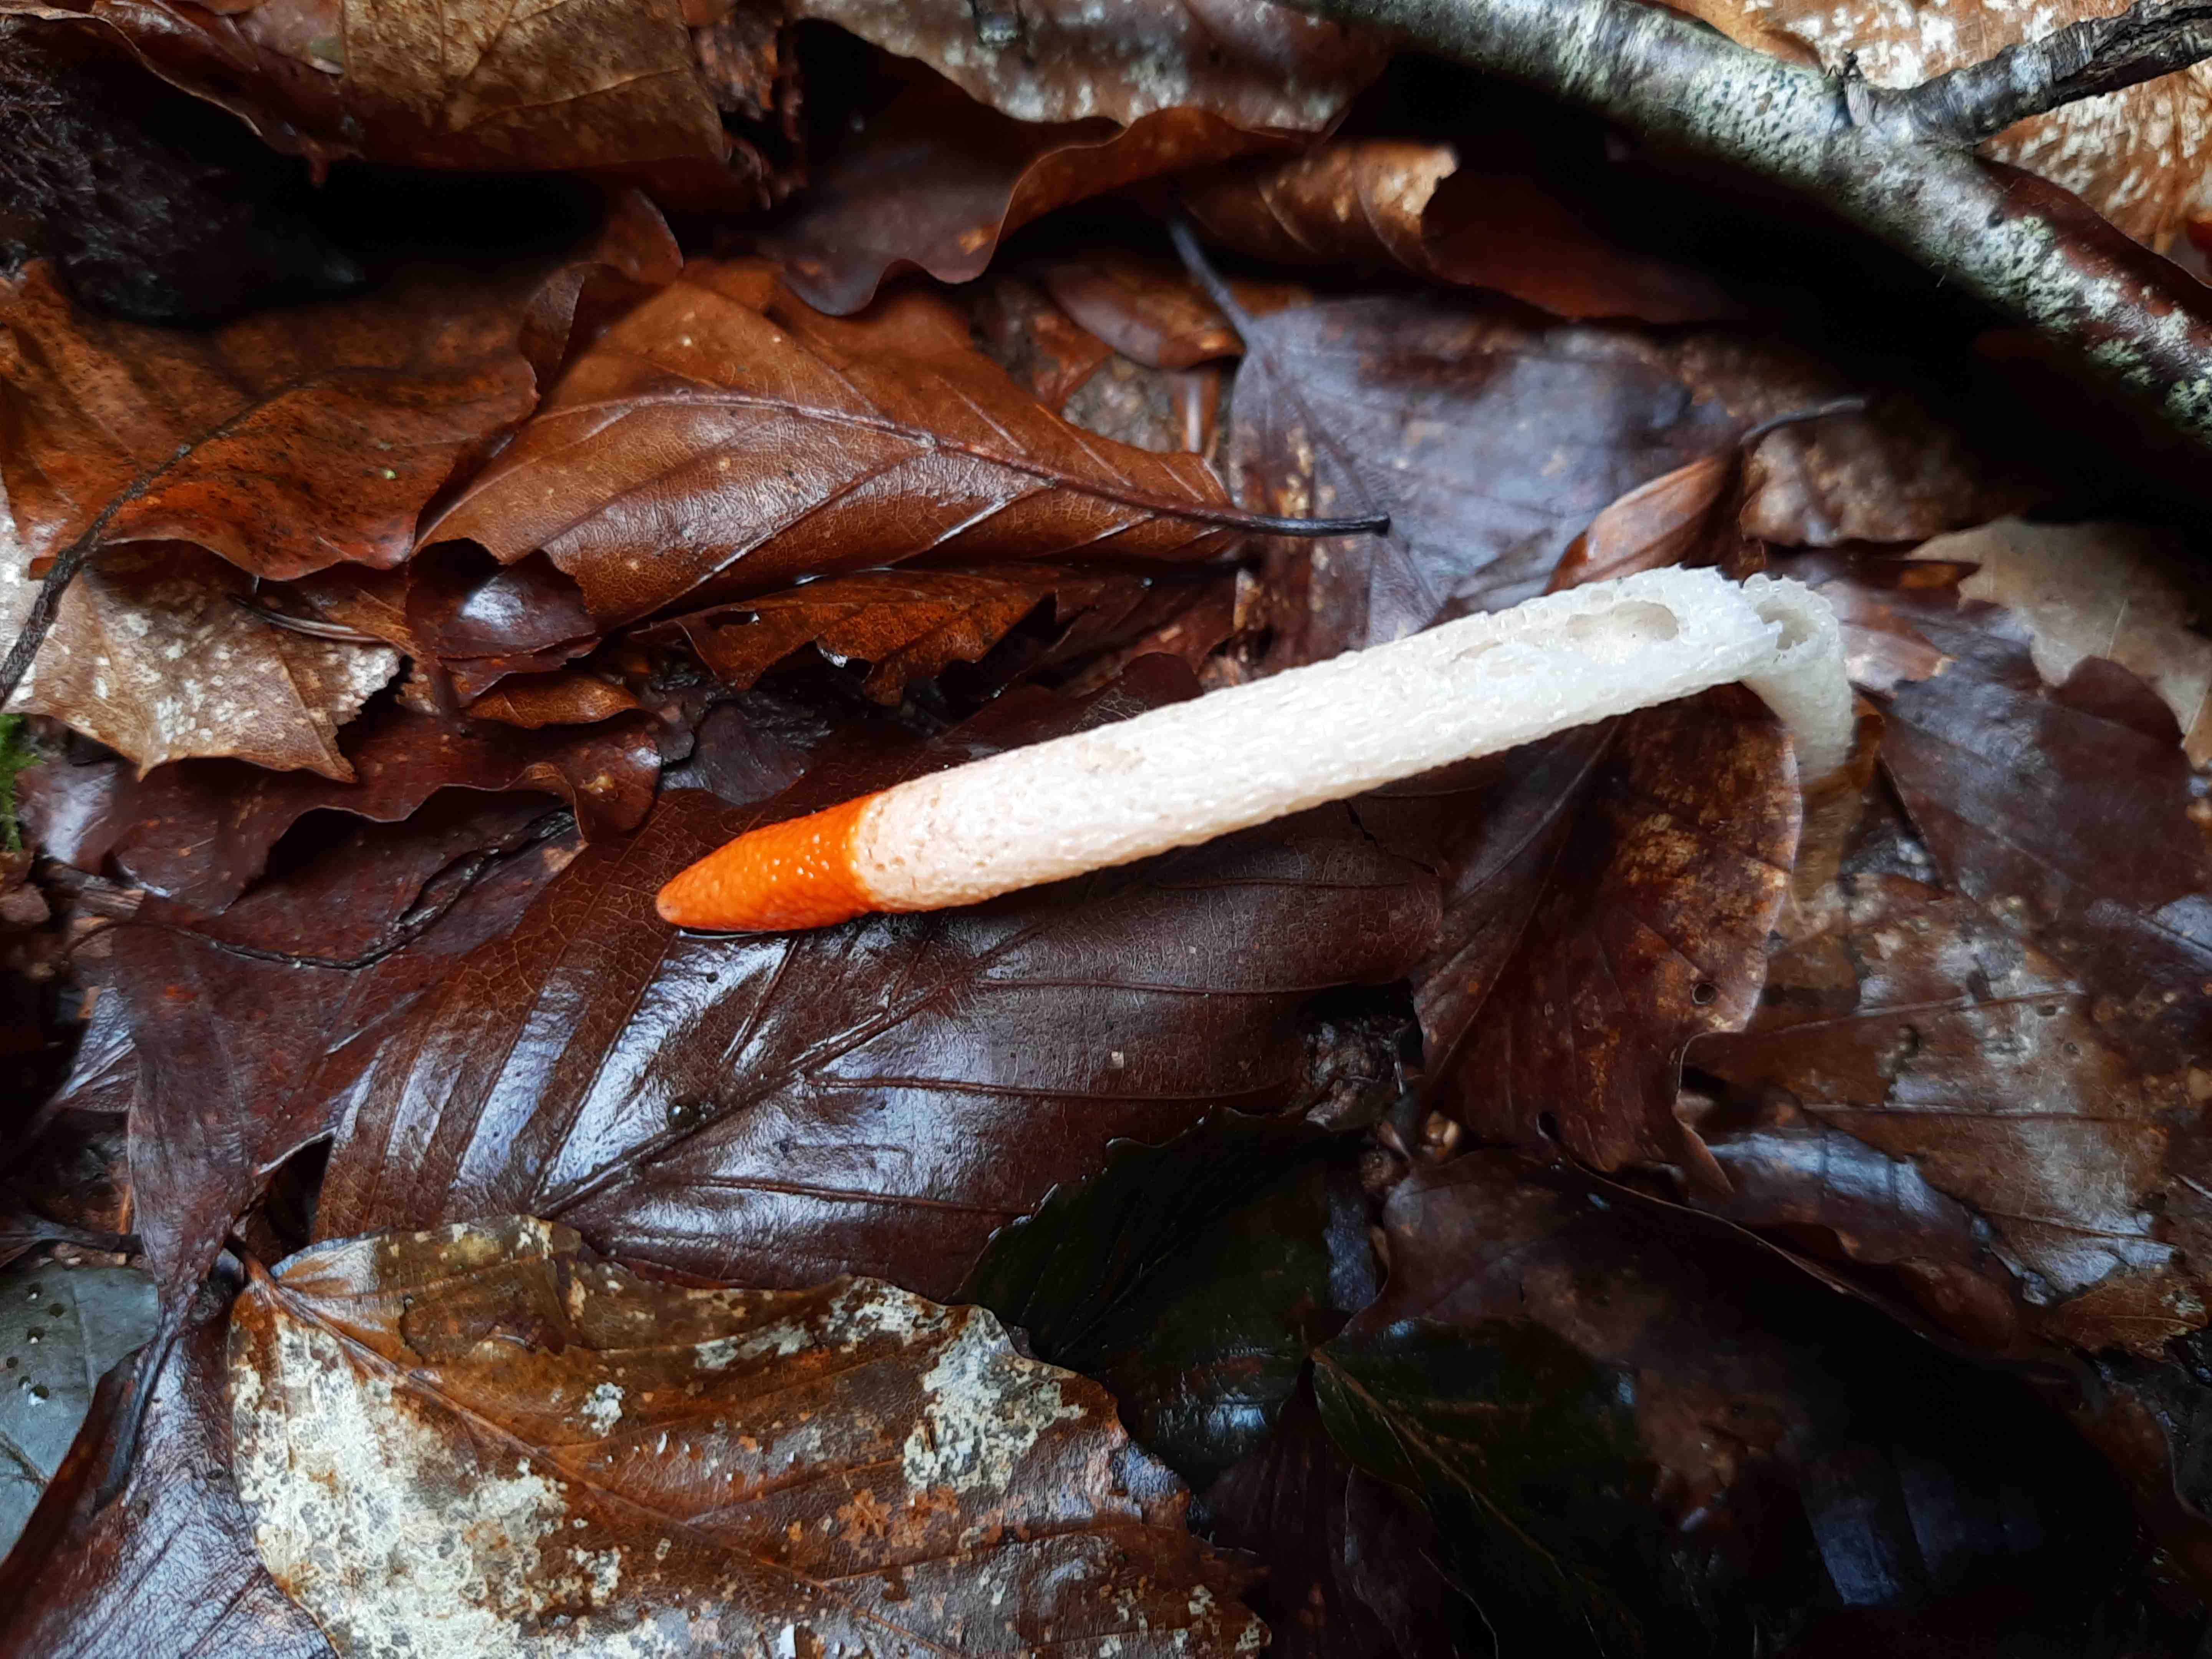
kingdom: Fungi
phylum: Basidiomycota
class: Agaricomycetes
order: Phallales
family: Phallaceae
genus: Mutinus
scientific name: Mutinus caninus
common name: hunde-stinksvamp
